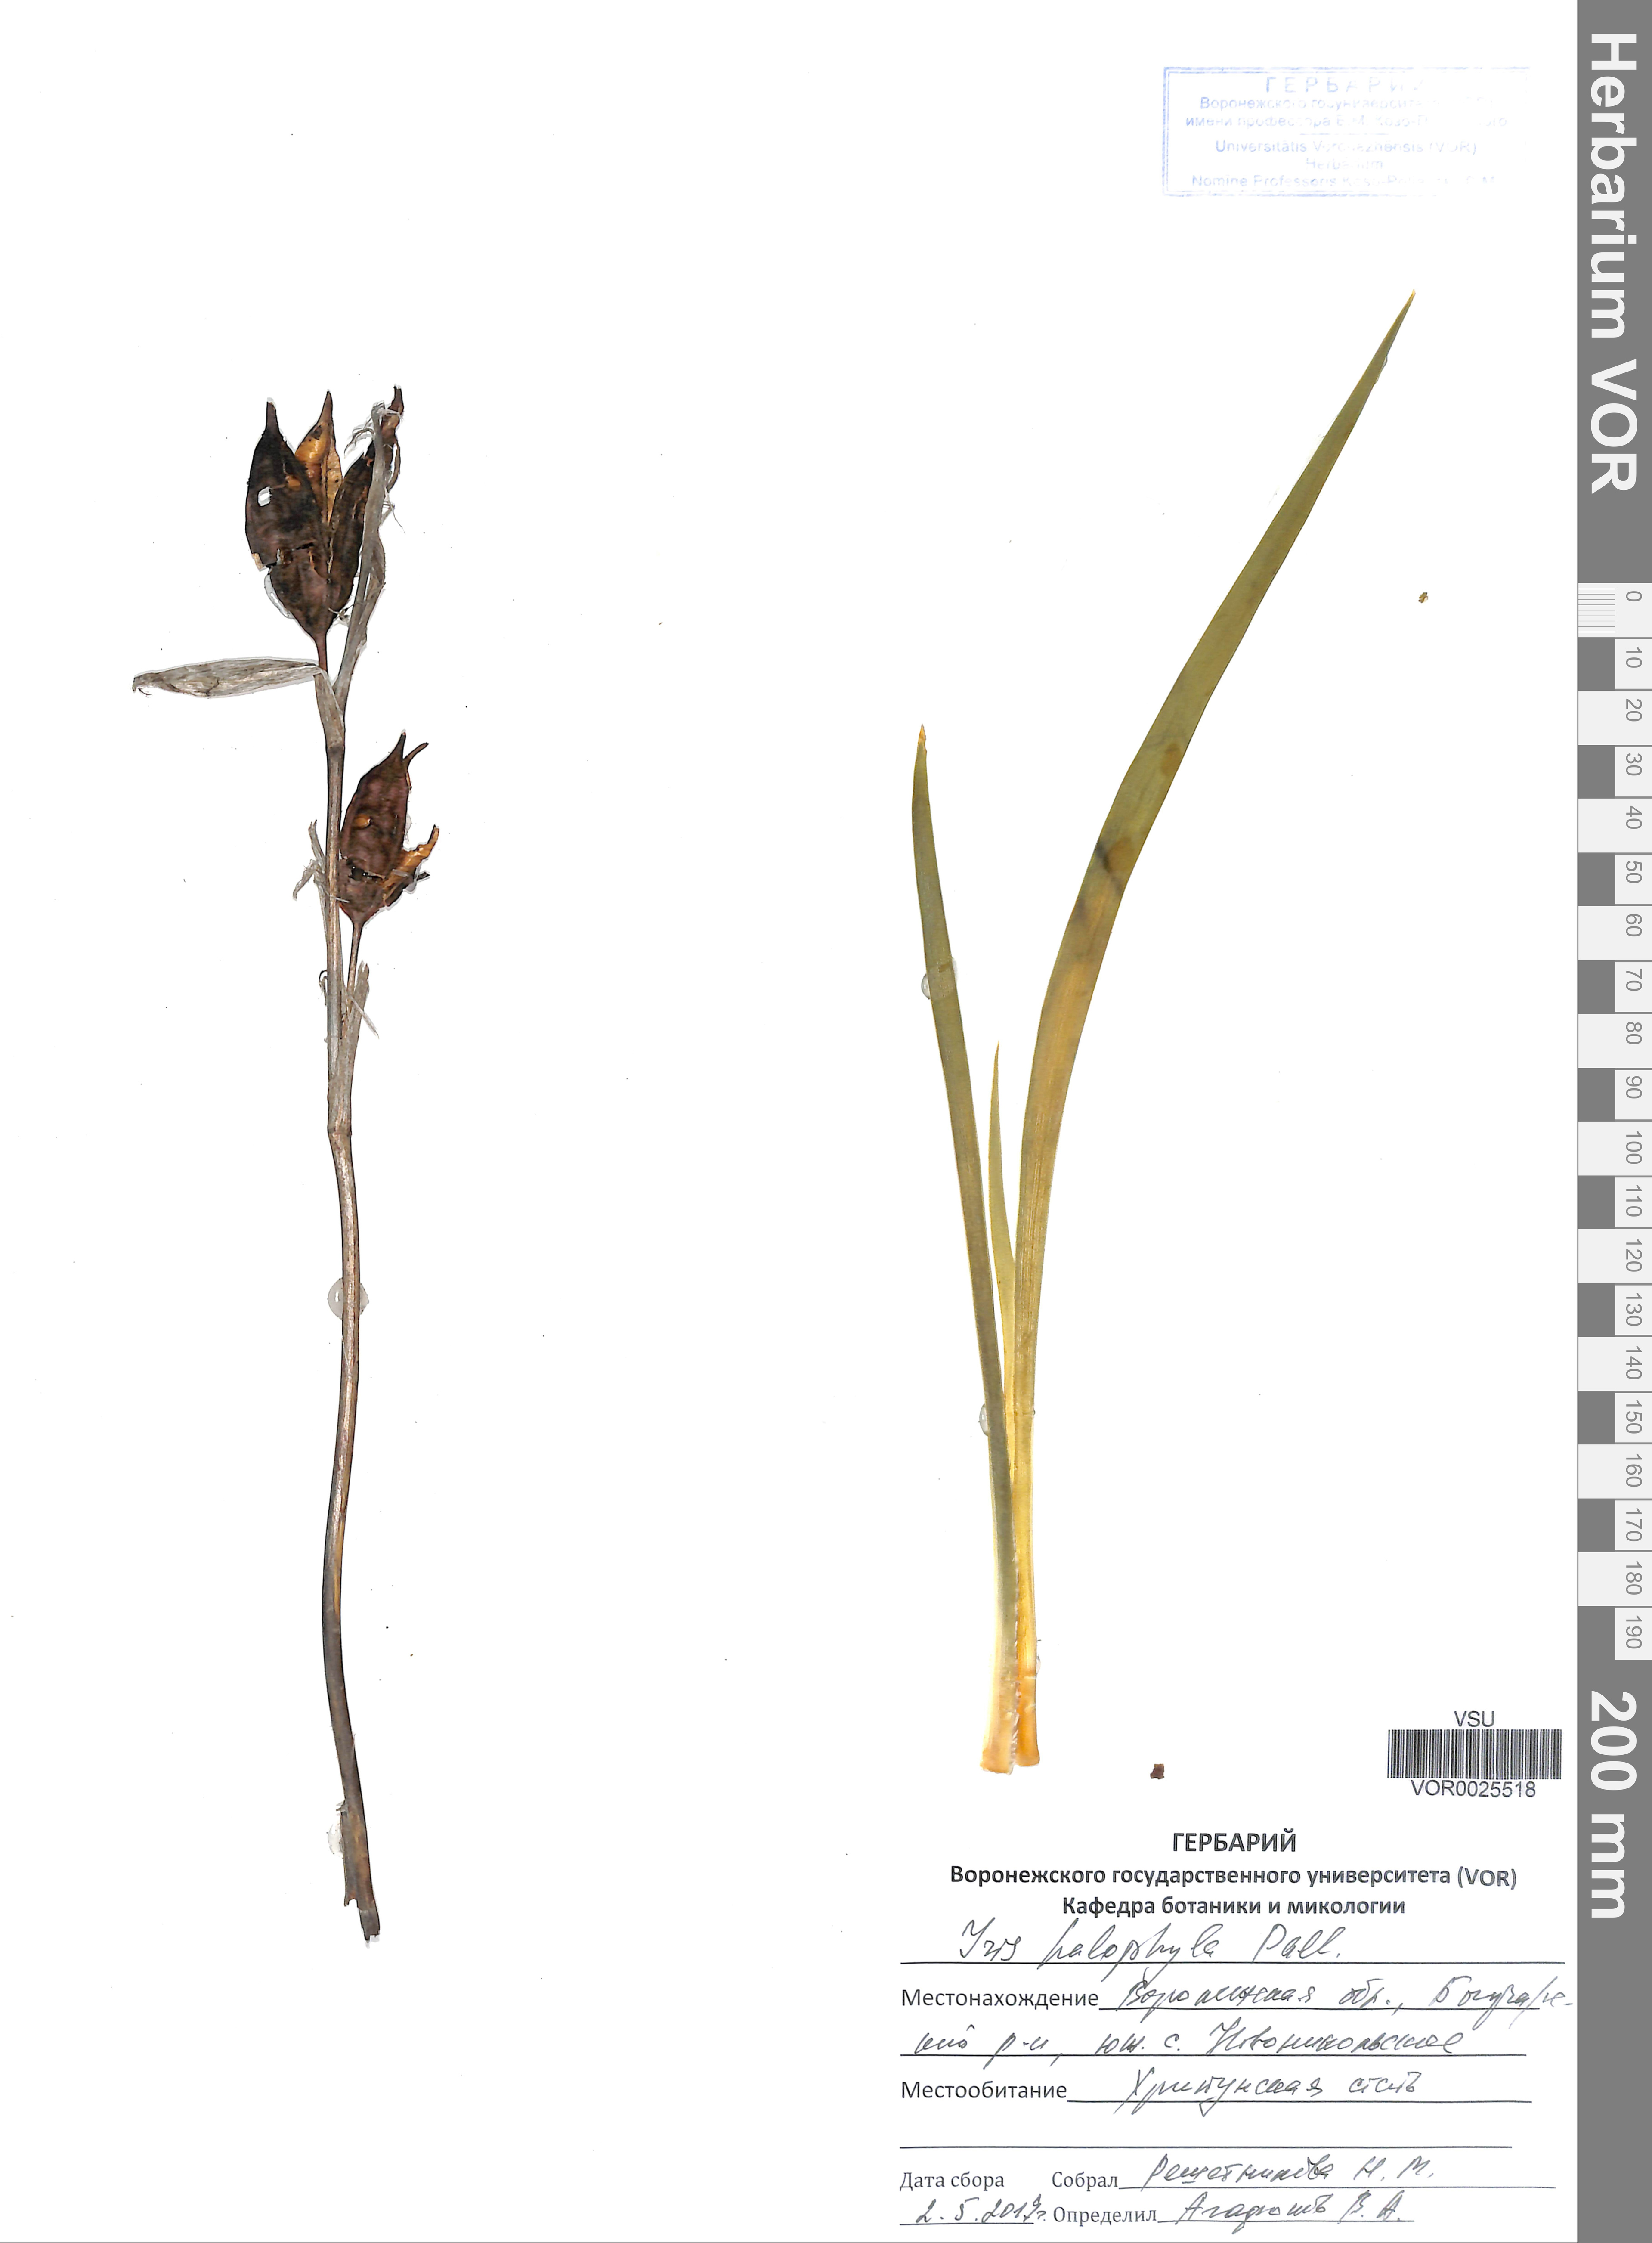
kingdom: Plantae
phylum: Tracheophyta
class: Liliopsida
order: Asparagales
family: Iridaceae
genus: Iris
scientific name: Iris halophila
